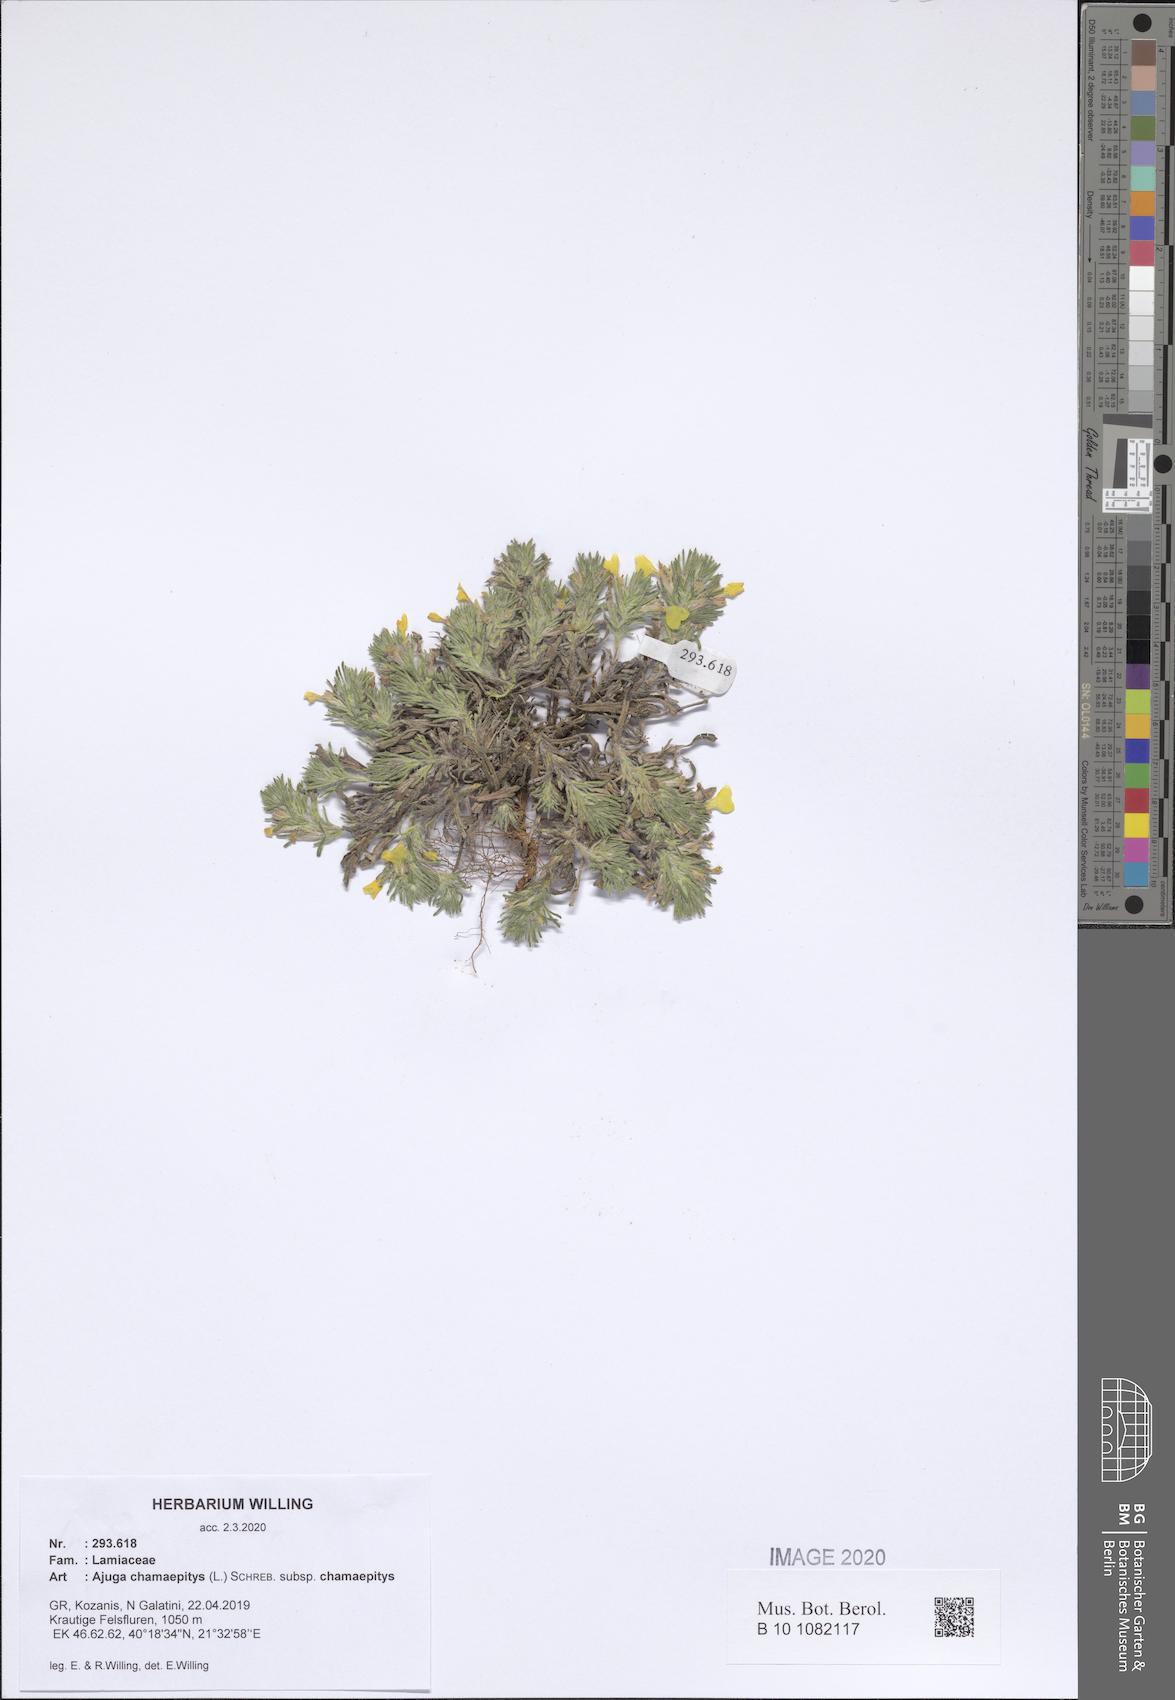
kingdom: Plantae
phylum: Tracheophyta
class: Magnoliopsida
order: Lamiales
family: Lamiaceae
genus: Ajuga
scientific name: Ajuga chamaepitys
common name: Ground-pine
